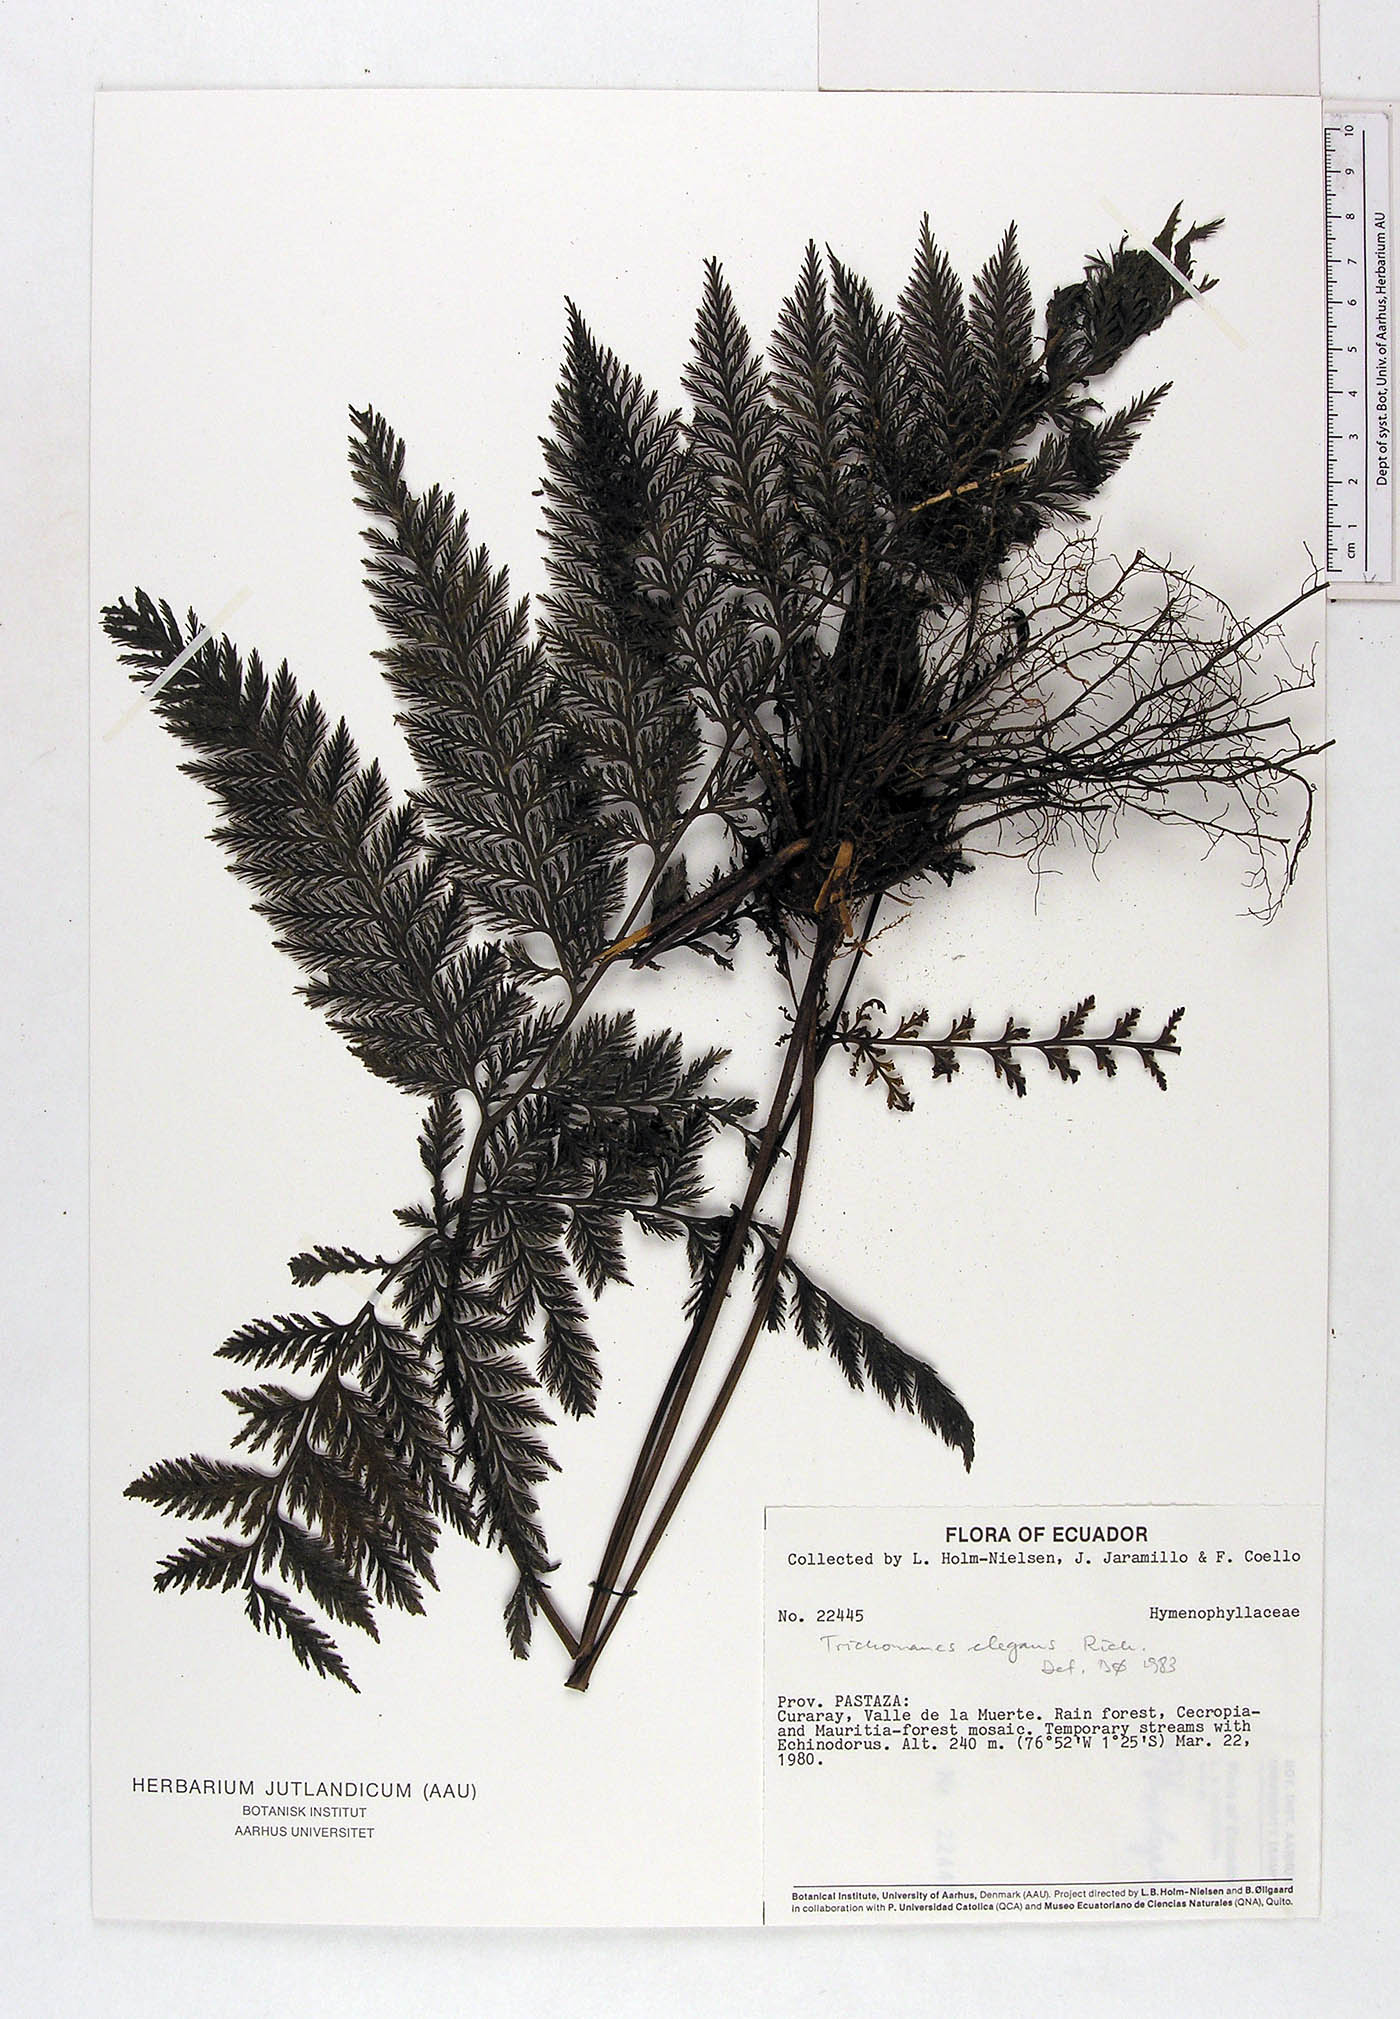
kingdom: Plantae
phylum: Tracheophyta
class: Polypodiopsida
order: Hymenophyllales
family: Hymenophyllaceae
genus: Trichomanes
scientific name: Trichomanes elegans
